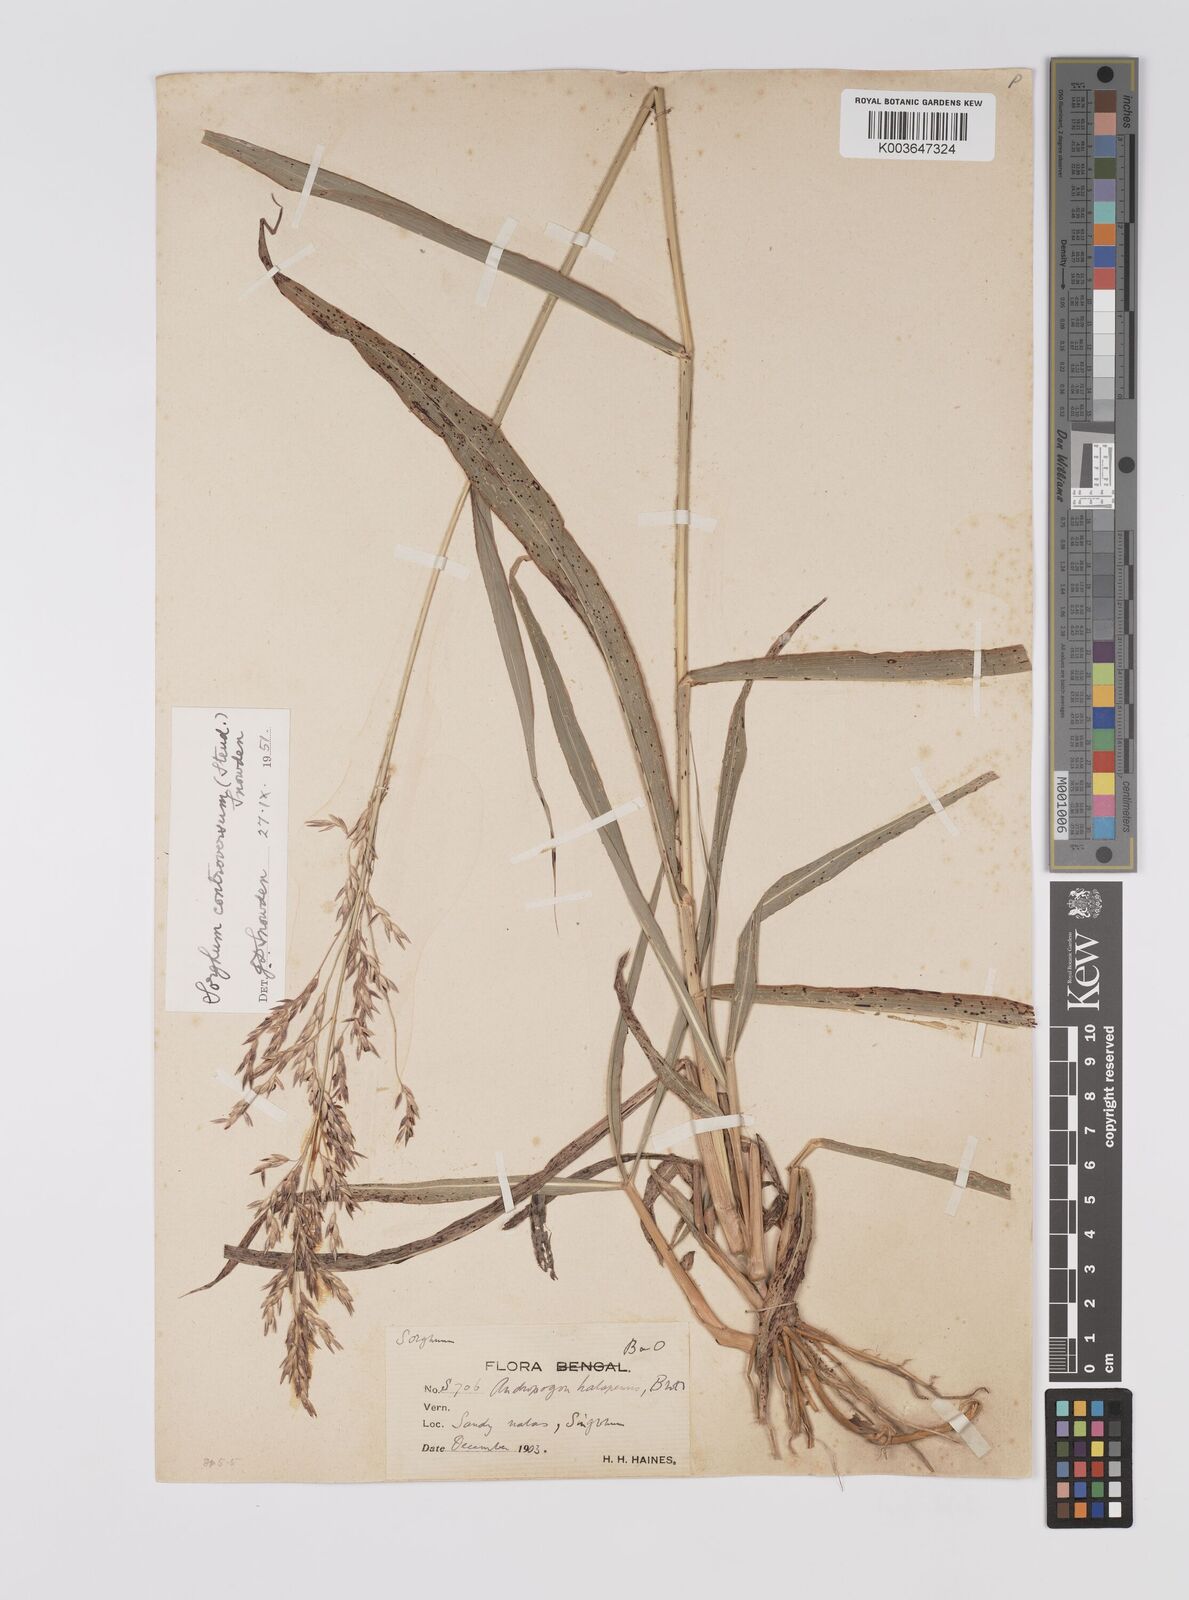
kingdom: Plantae
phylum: Tracheophyta
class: Liliopsida
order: Poales
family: Poaceae
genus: Sorghum
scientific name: Sorghum controversum
